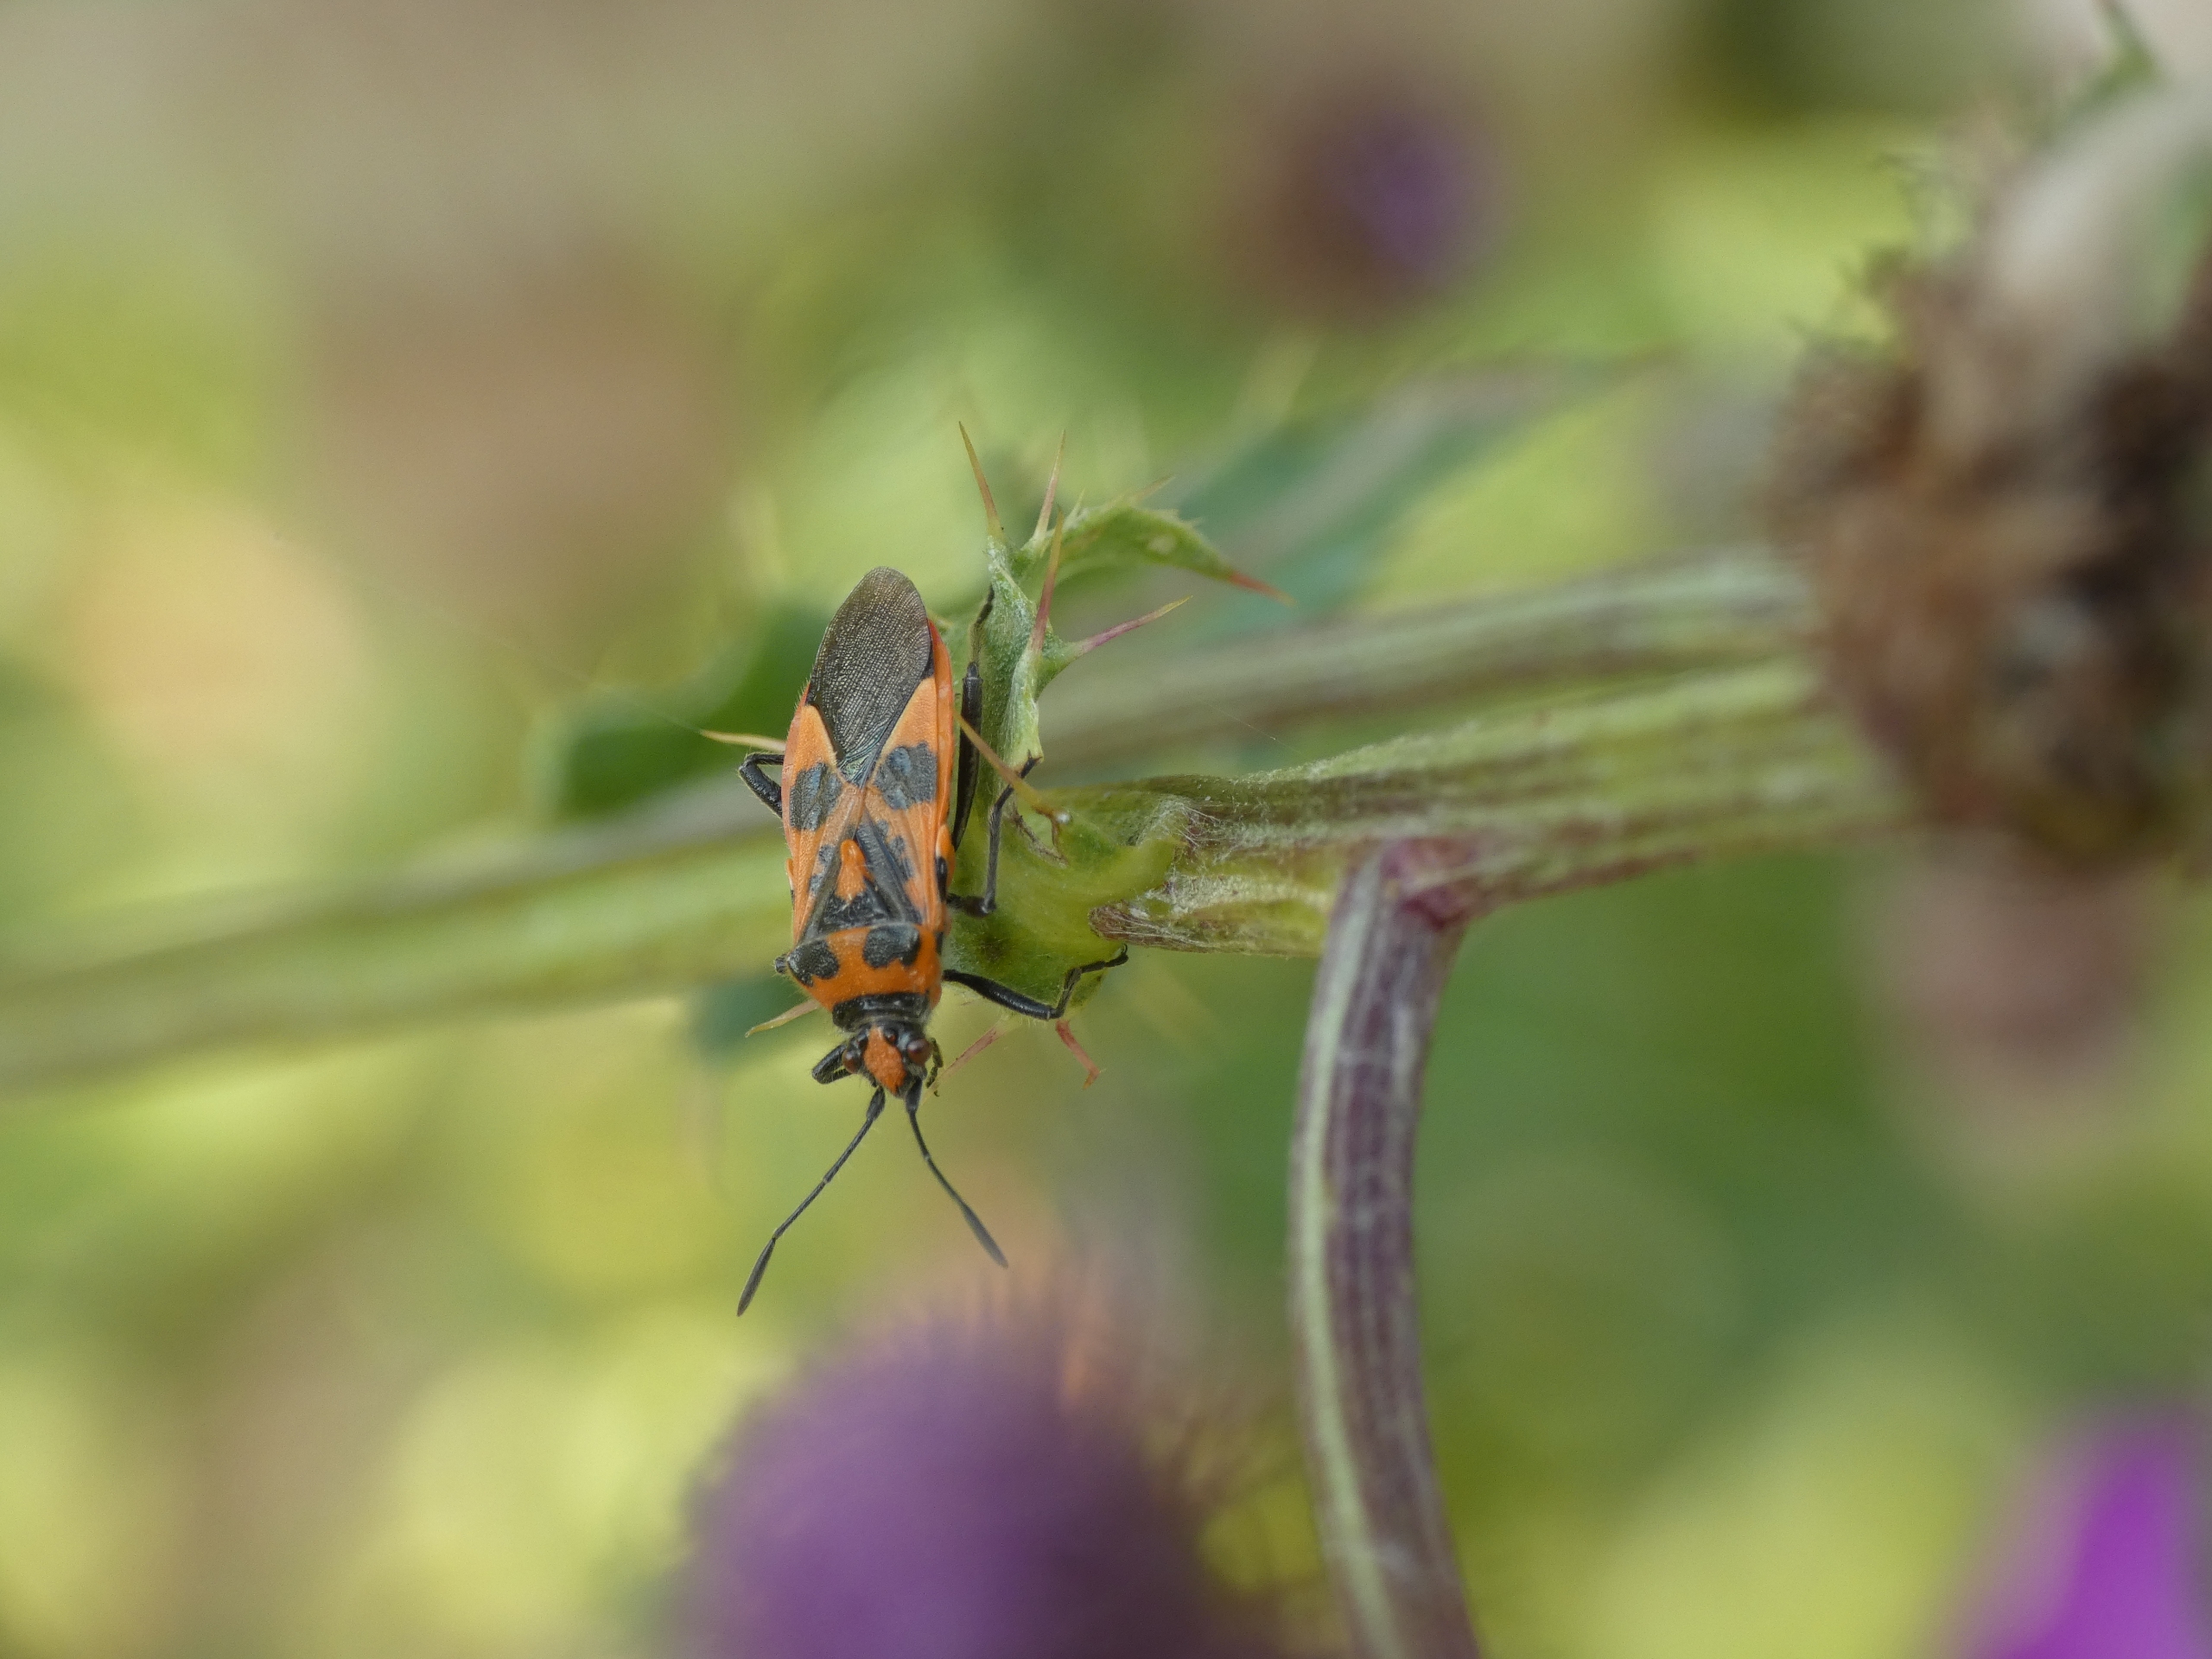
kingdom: Animalia
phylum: Arthropoda
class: Insecta
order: Hemiptera
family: Rhopalidae
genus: Corizus
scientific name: Corizus hyoscyami
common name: Rød kanttæge
